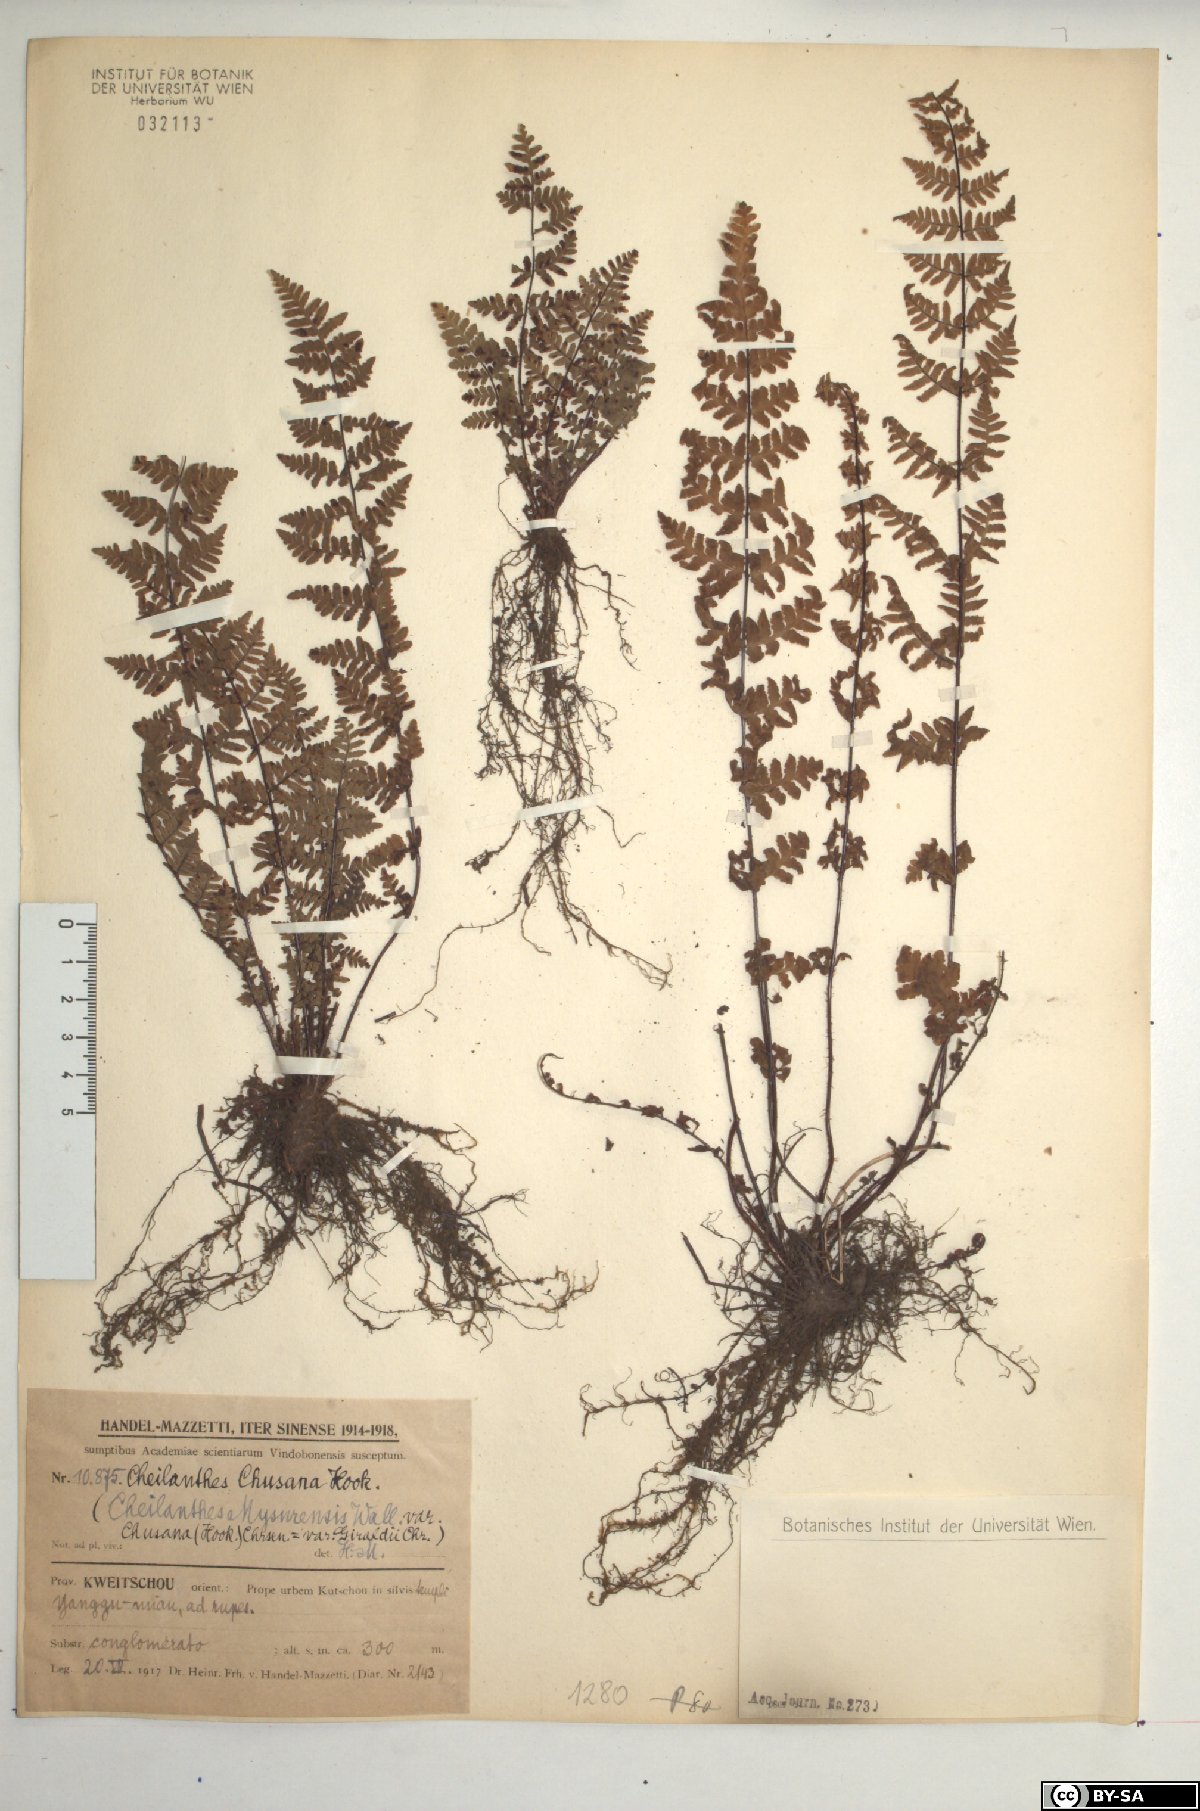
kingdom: Plantae
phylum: Tracheophyta
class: Polypodiopsida
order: Polypodiales
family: Pteridaceae
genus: Oeosporangium
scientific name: Oeosporangium chusanum
